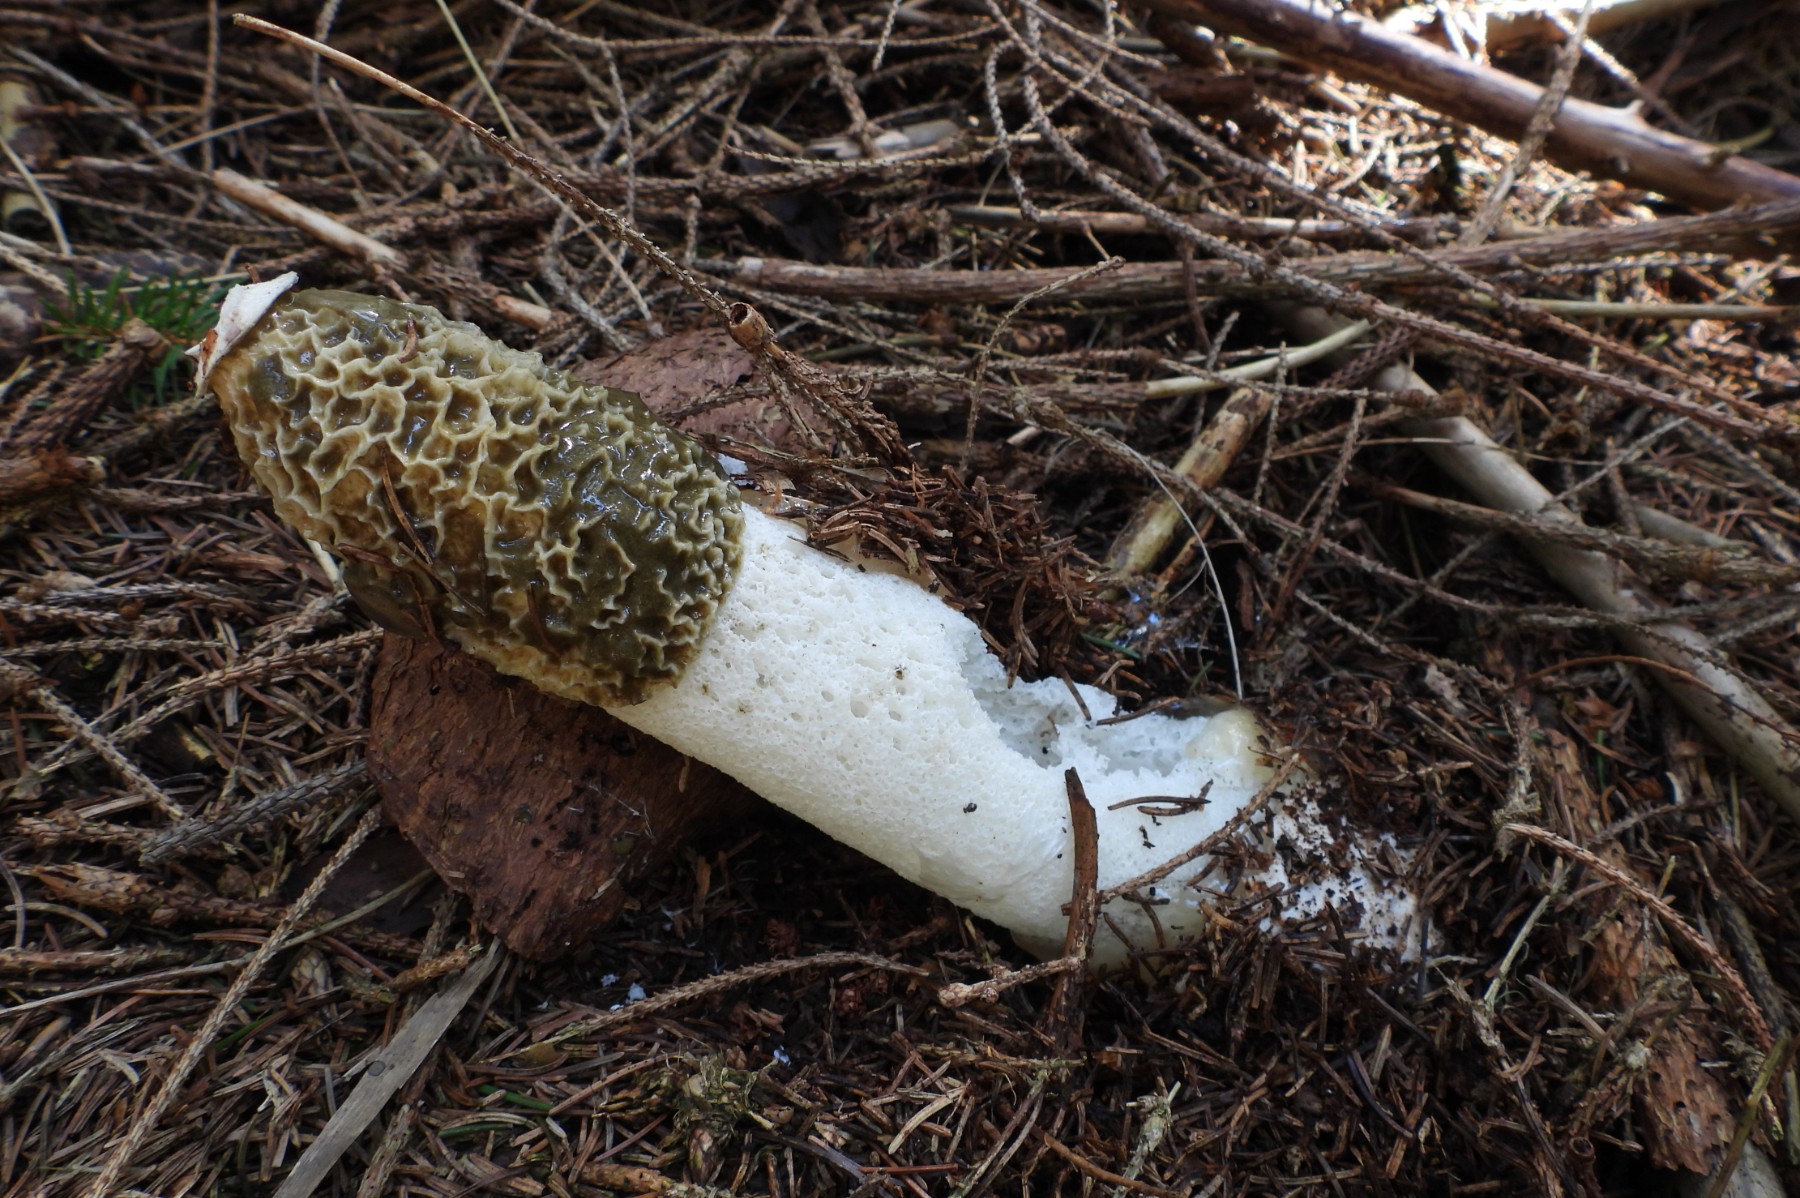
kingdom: Fungi
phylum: Basidiomycota
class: Agaricomycetes
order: Phallales
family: Phallaceae
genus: Phallus
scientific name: Phallus impudicus
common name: almindelig stinksvamp
